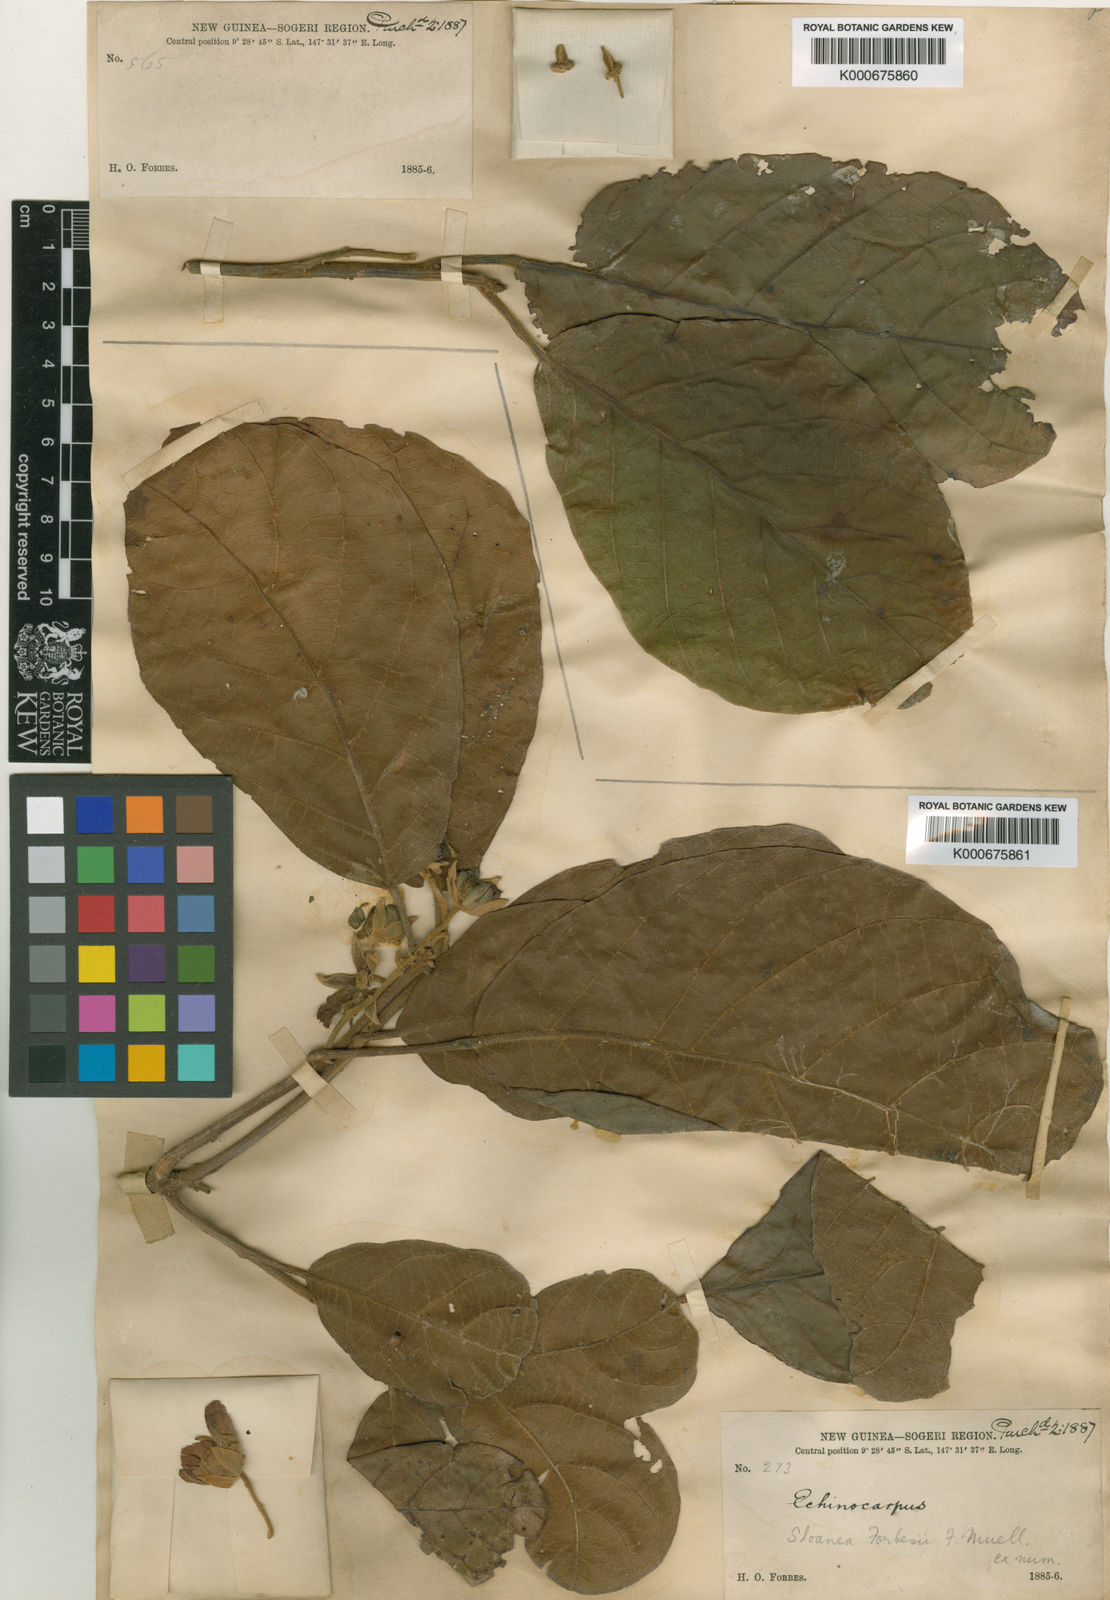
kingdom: Plantae
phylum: Tracheophyta
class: Magnoliopsida
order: Oxalidales
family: Elaeocarpaceae
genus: Sloanea
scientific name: Sloanea forbesii
